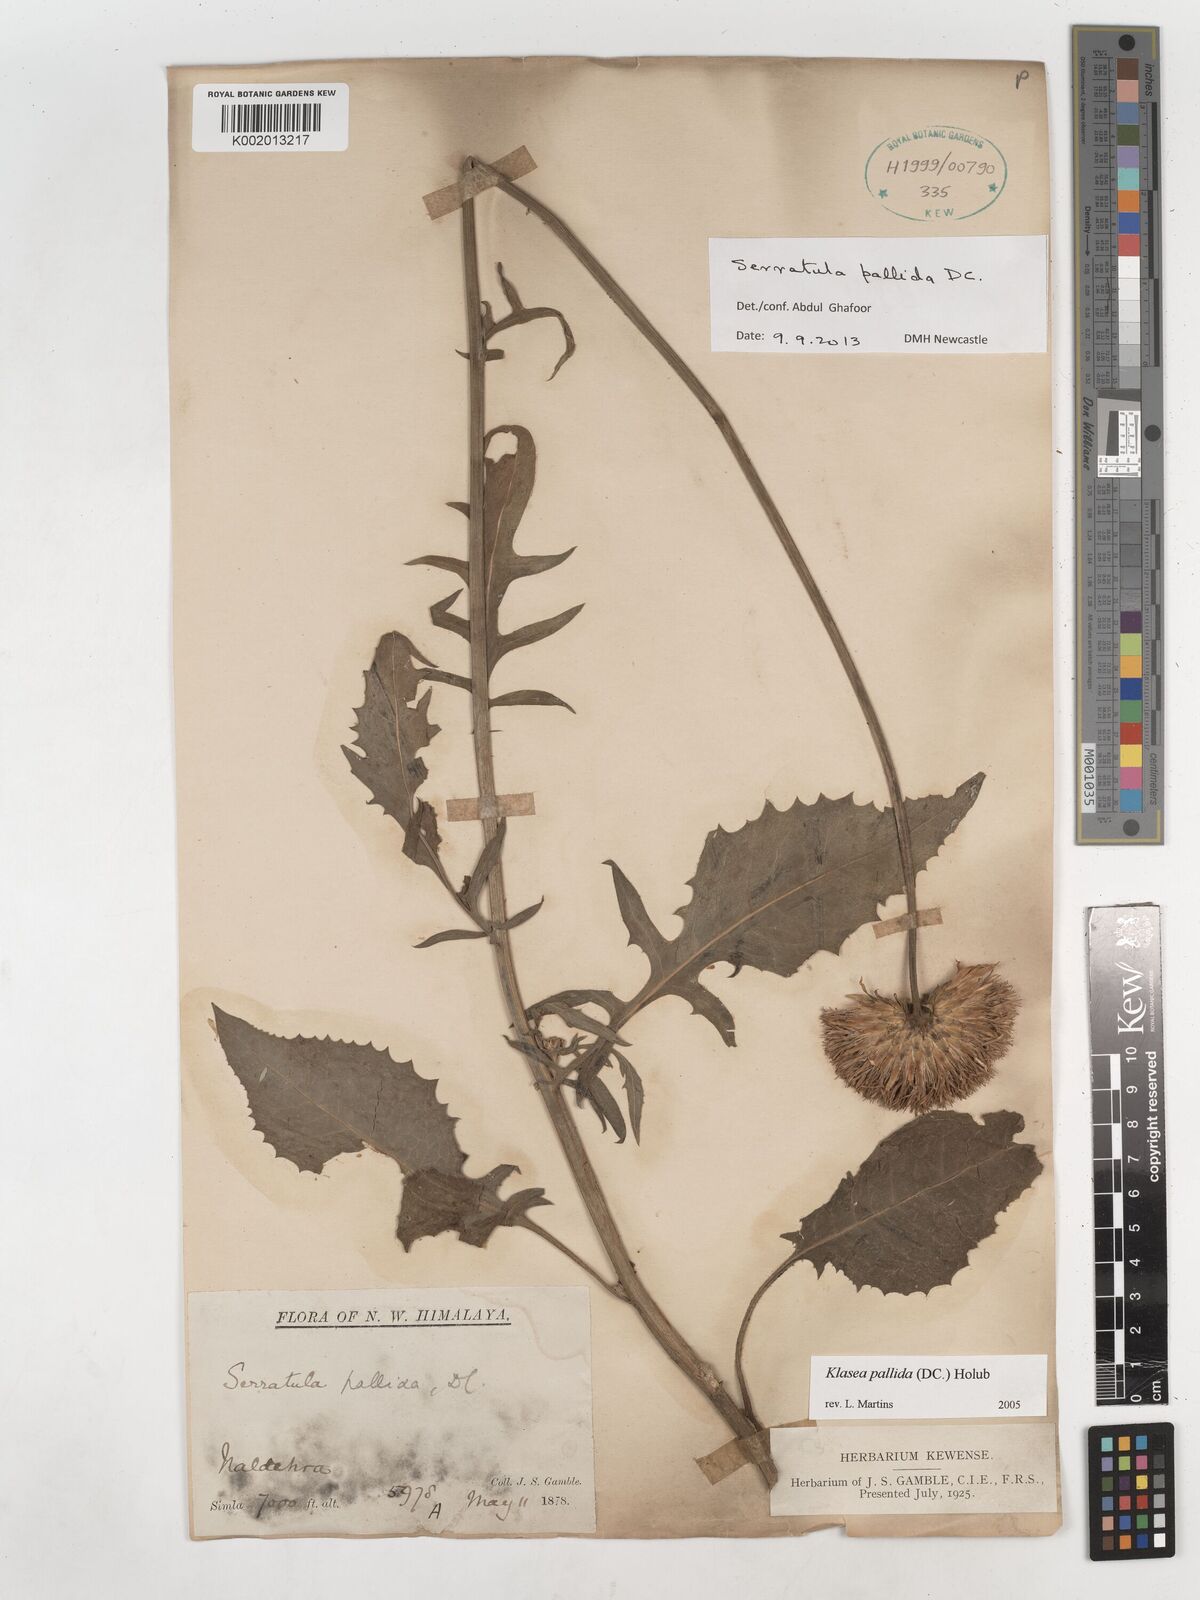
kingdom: Plantae
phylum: Tracheophyta
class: Magnoliopsida
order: Asterales
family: Asteraceae
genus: Klasea
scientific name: Klasea pallida
